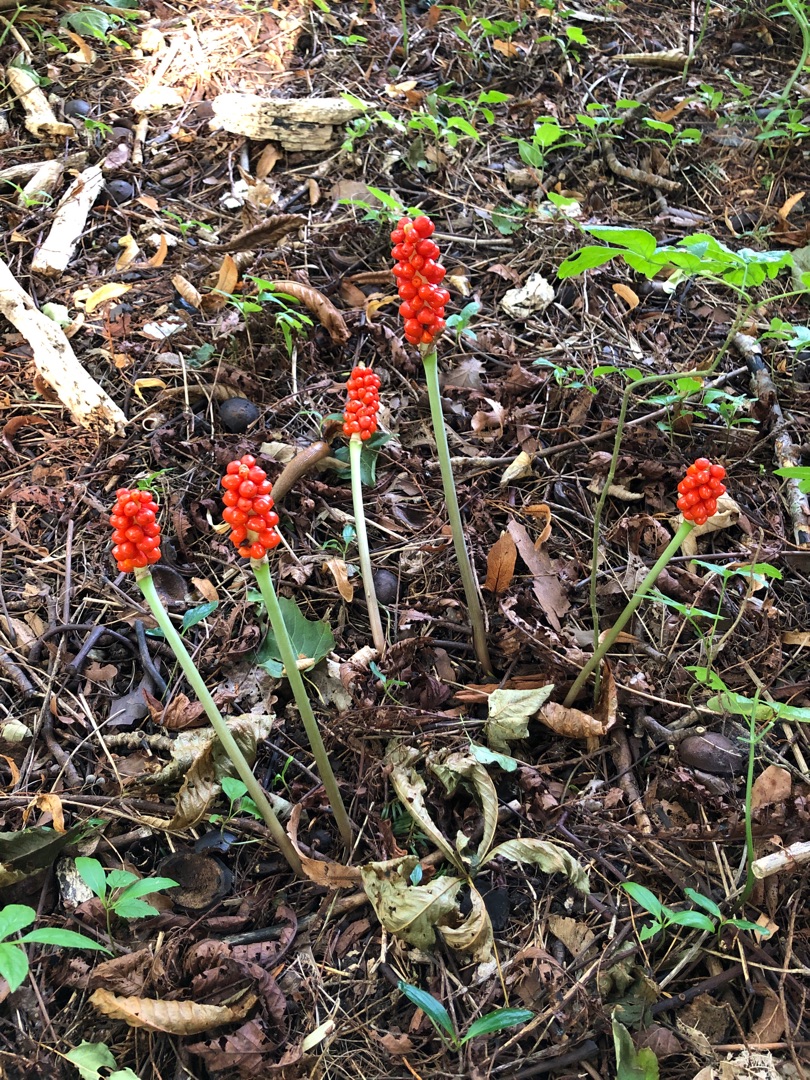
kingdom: Plantae
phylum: Tracheophyta
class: Liliopsida
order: Alismatales
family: Araceae
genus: Arum
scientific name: Arum
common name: Arumslægten
